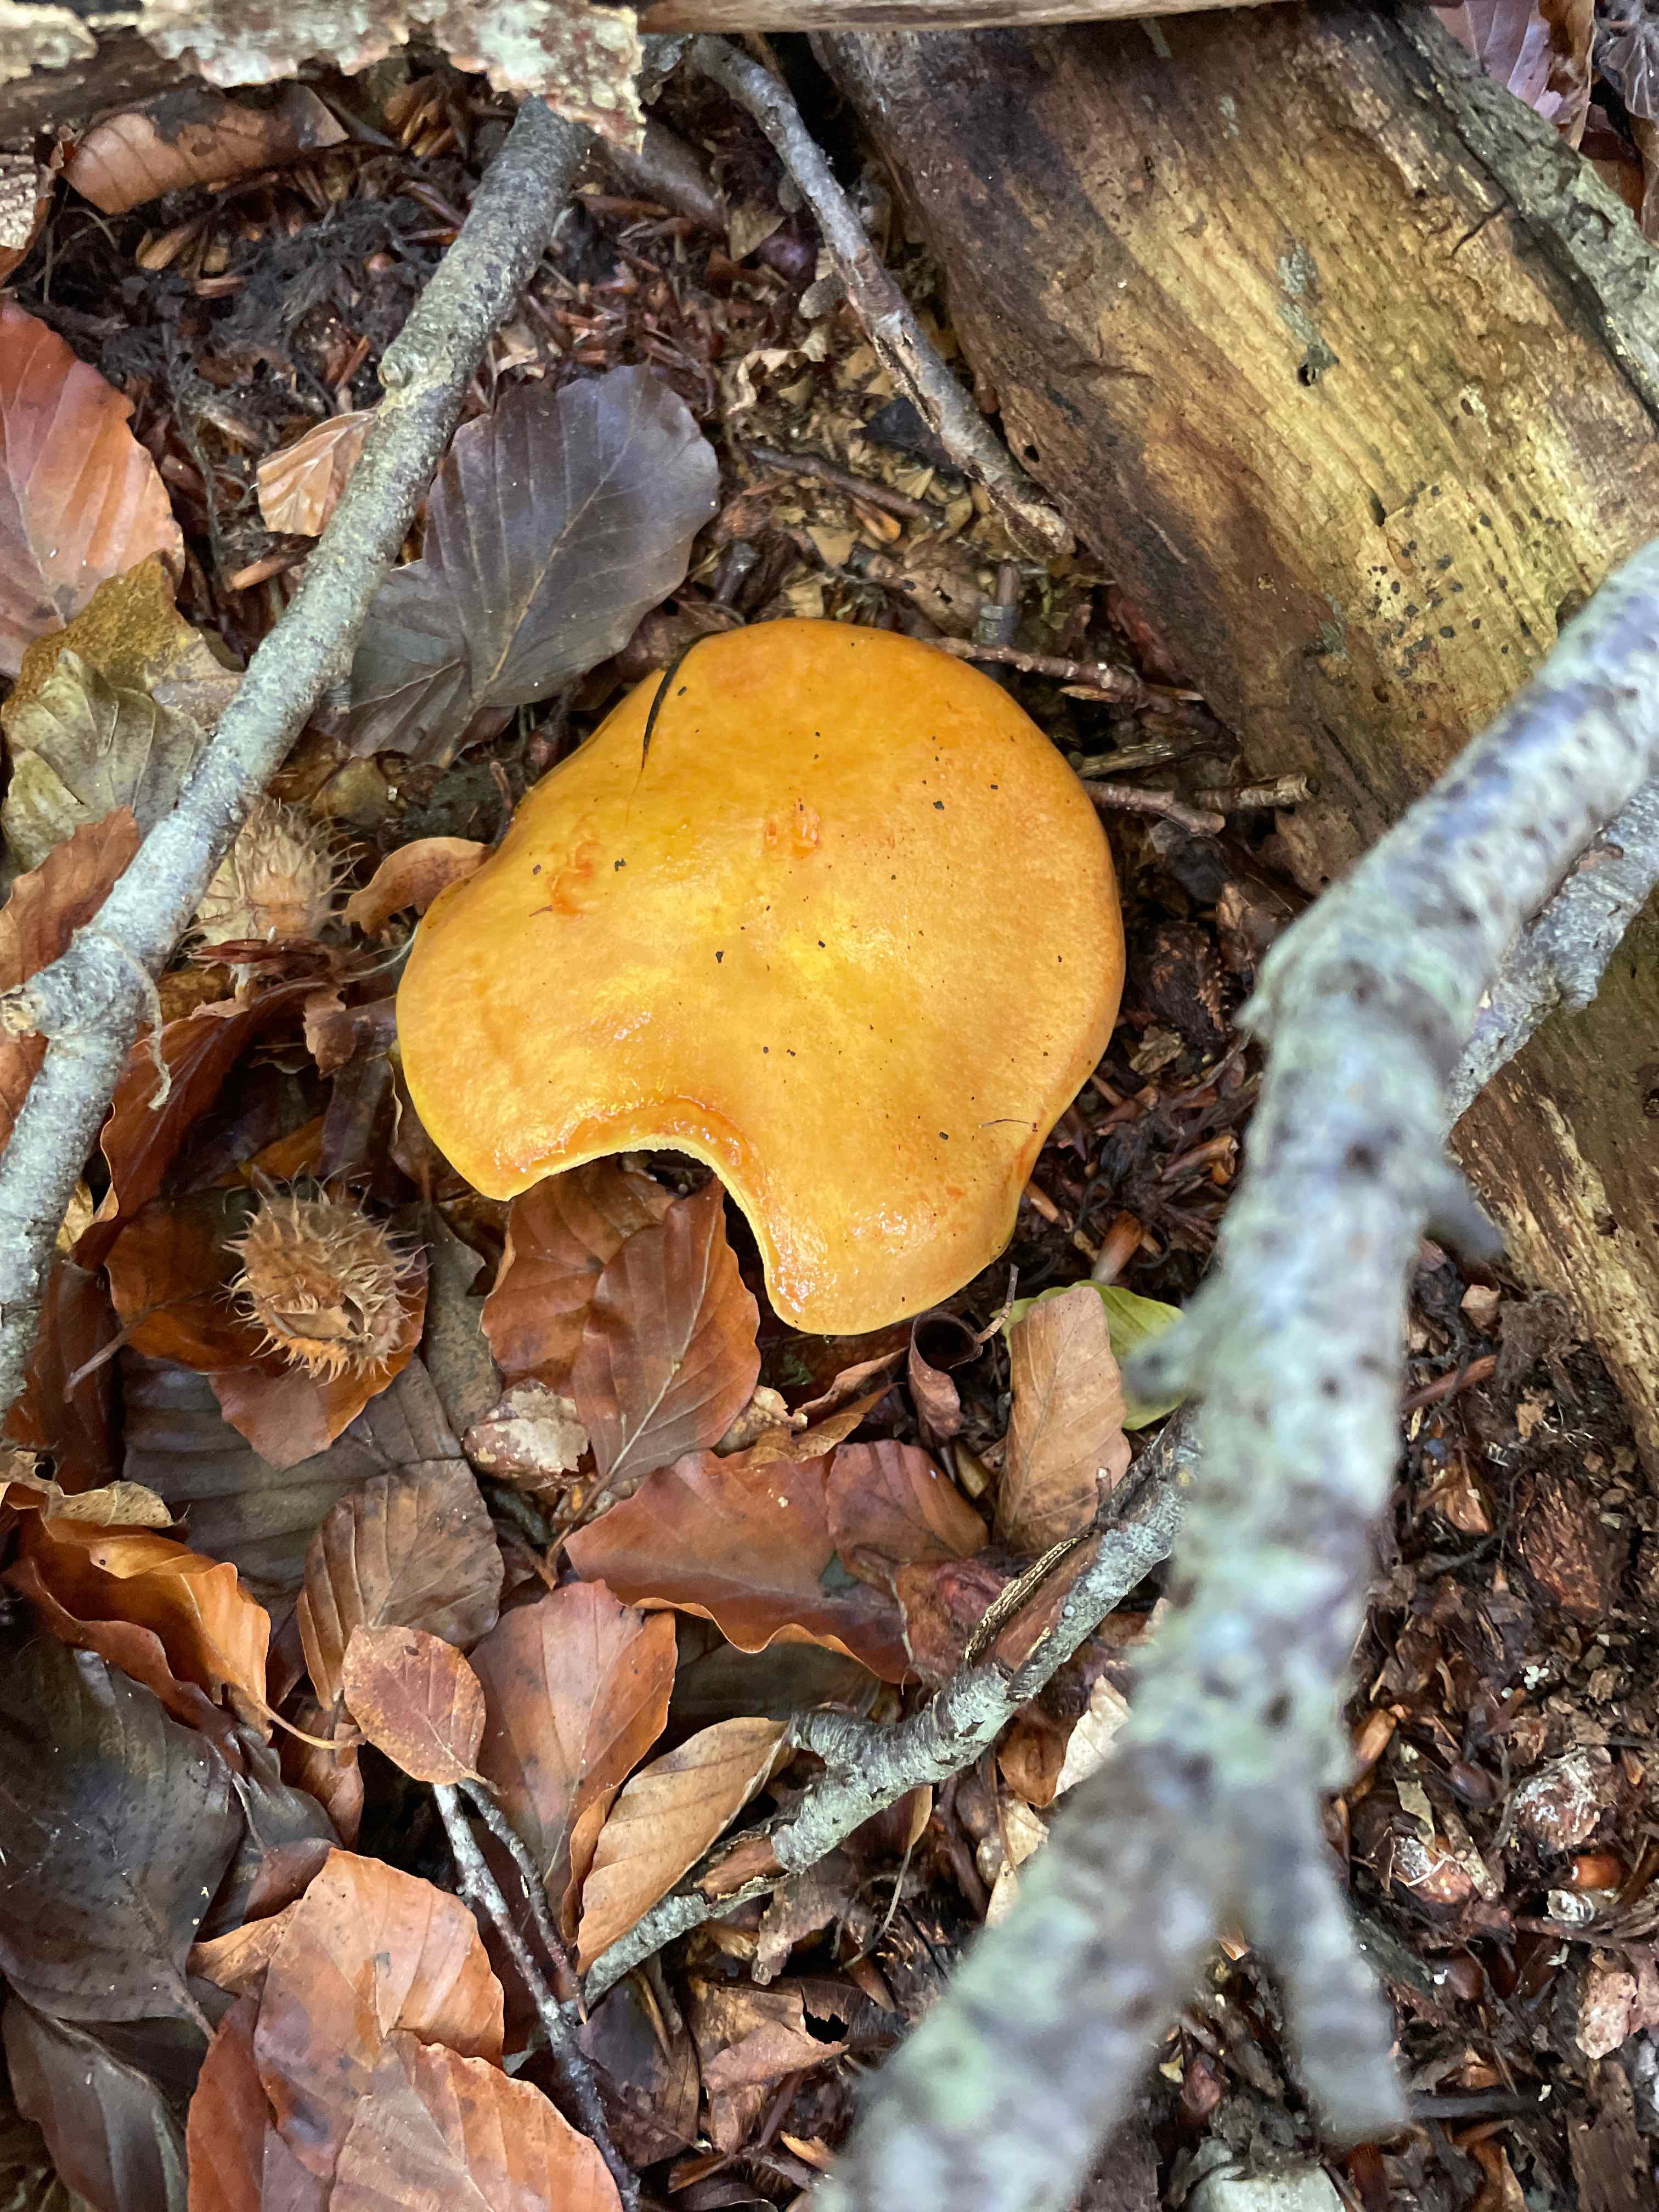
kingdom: Fungi
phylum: Basidiomycota
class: Agaricomycetes
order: Boletales
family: Suillaceae
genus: Suillus
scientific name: Suillus grevillei
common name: lærke-slimrørhat
